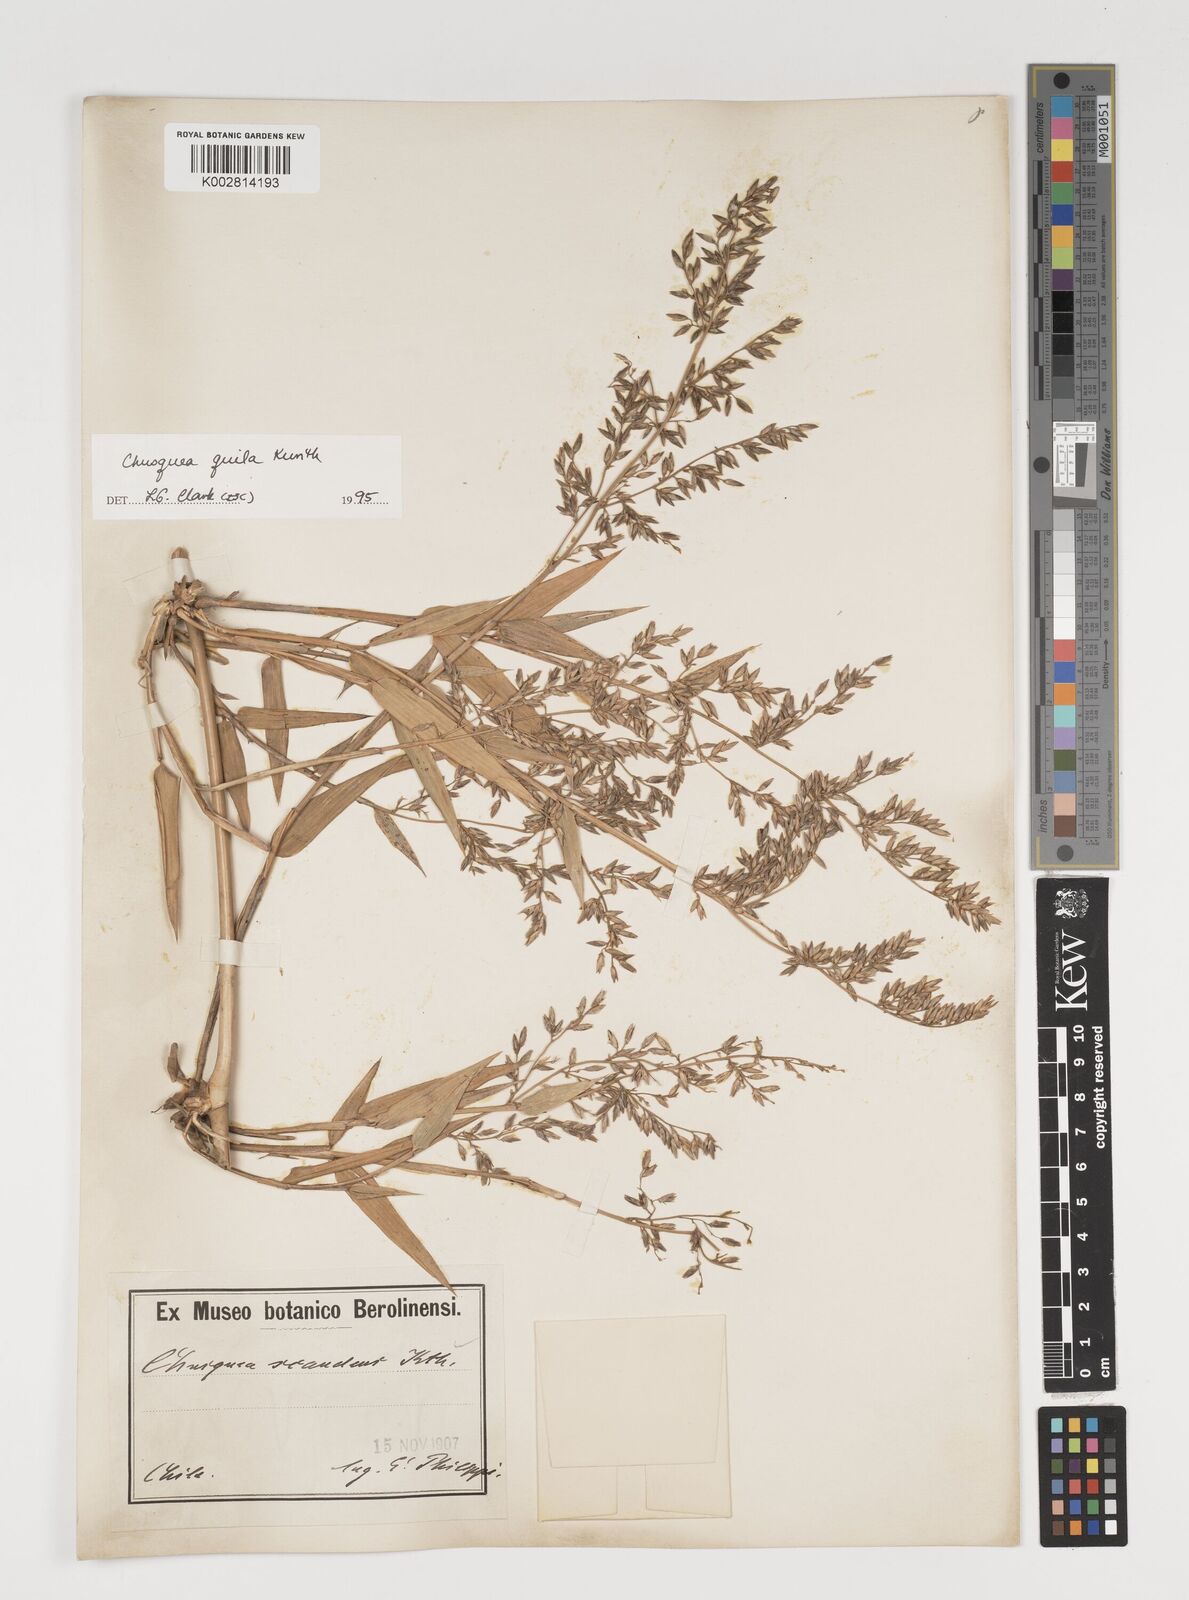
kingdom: Plantae
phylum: Tracheophyta
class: Liliopsida
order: Poales
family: Poaceae
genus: Chusquea
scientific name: Chusquea quila
